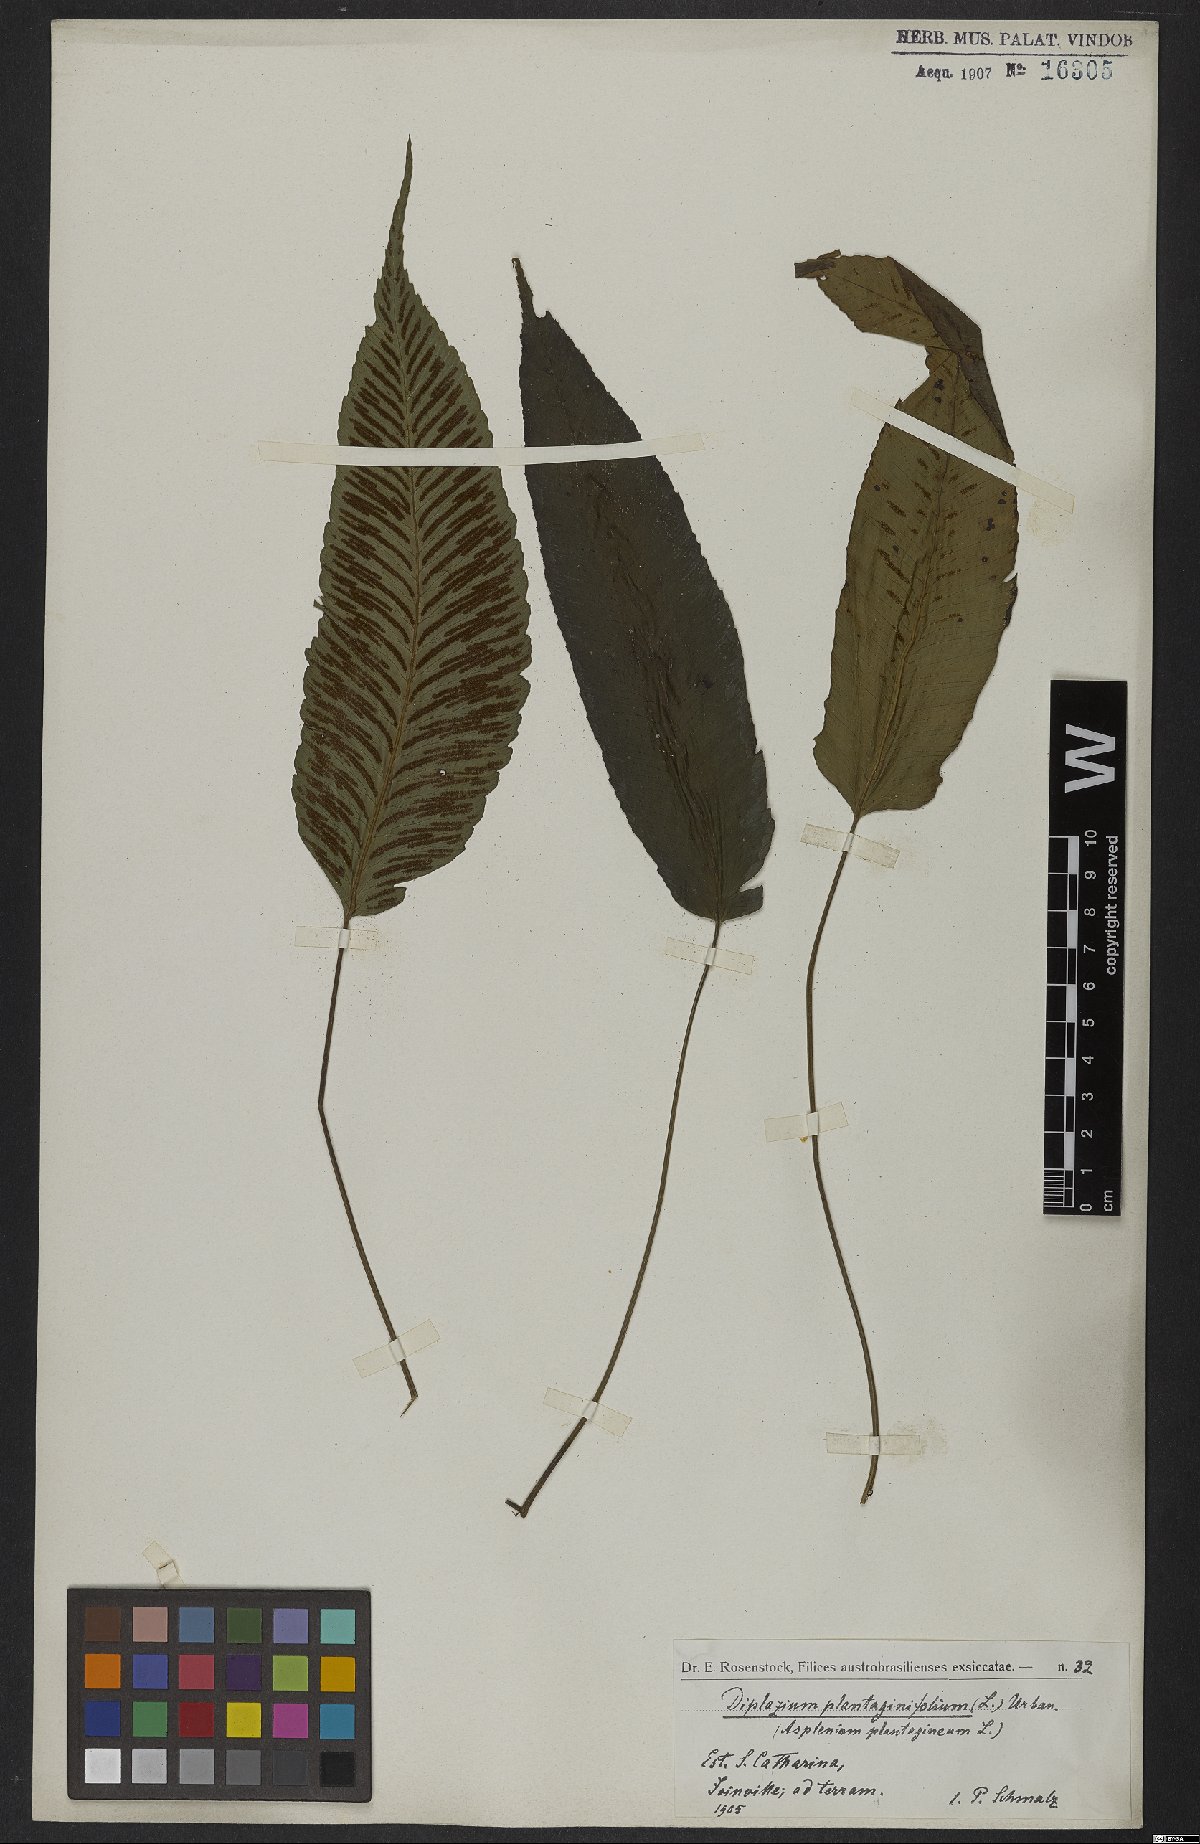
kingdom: Plantae
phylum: Tracheophyta
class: Polypodiopsida
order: Polypodiales
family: Athyriaceae
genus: Diplazium
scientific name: Diplazium plantaginifolium
